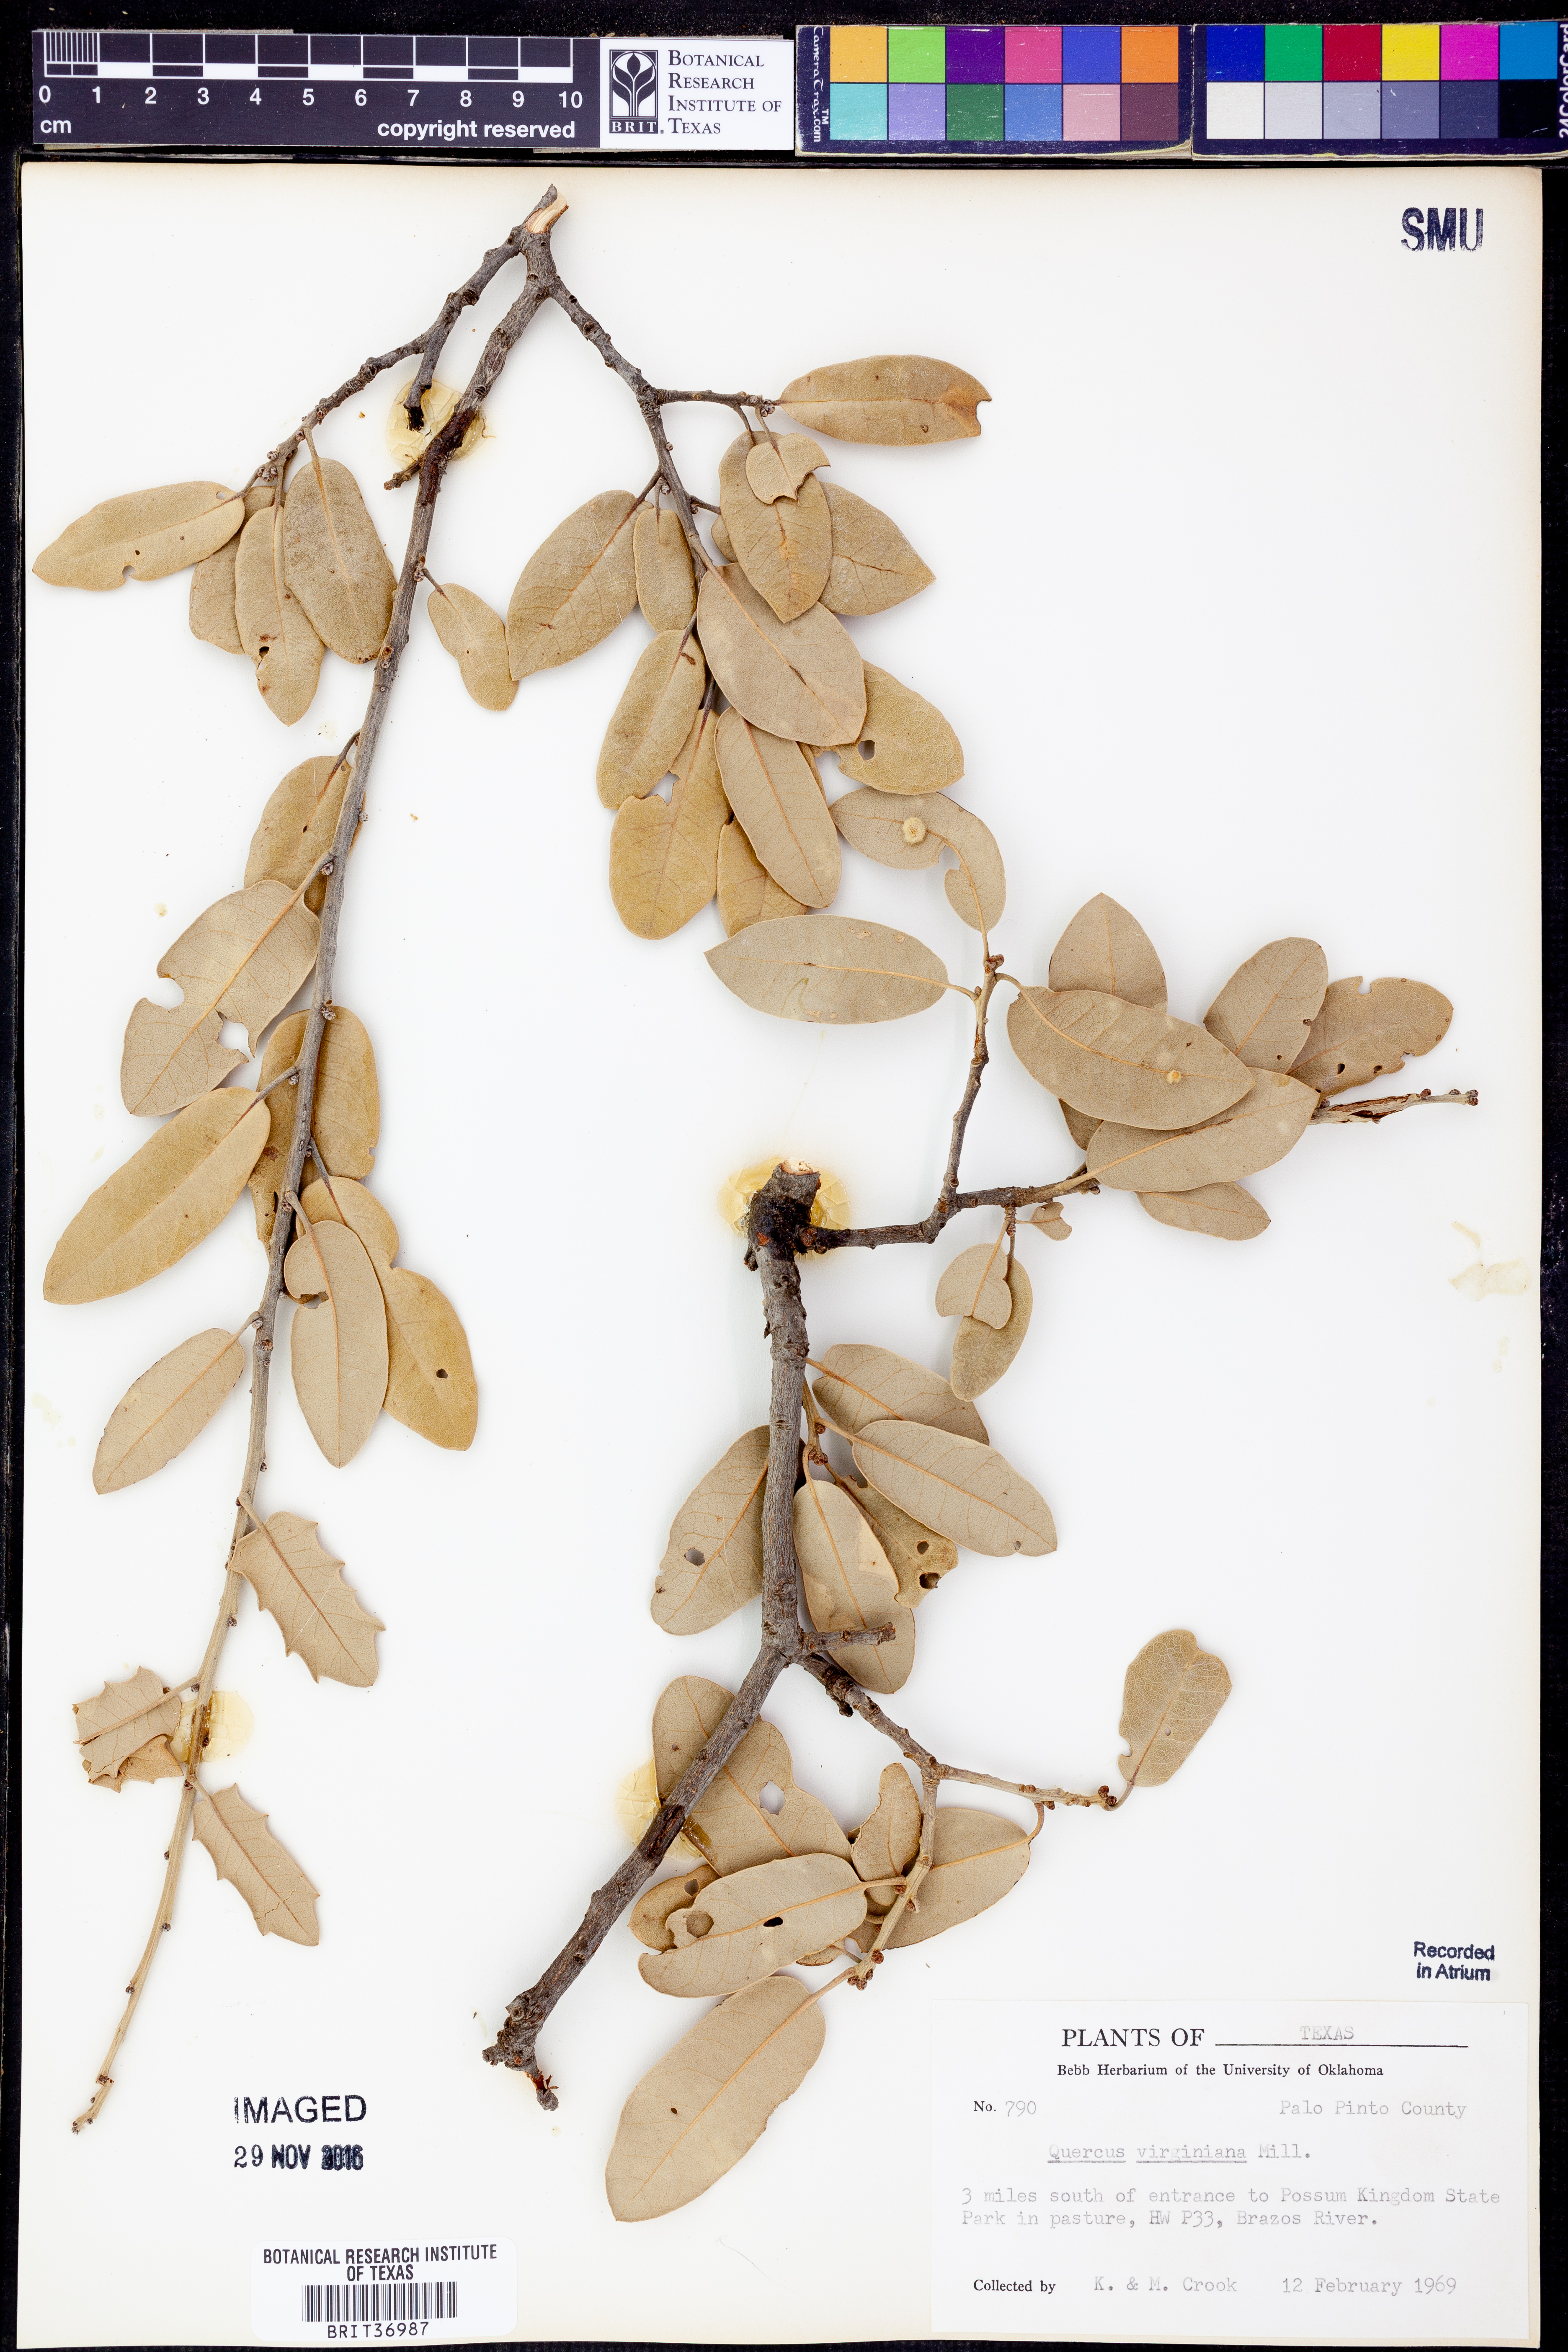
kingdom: Plantae
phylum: Tracheophyta
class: Magnoliopsida
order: Fagales
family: Fagaceae
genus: Quercus
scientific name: Quercus virginiana
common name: Southern live oak
